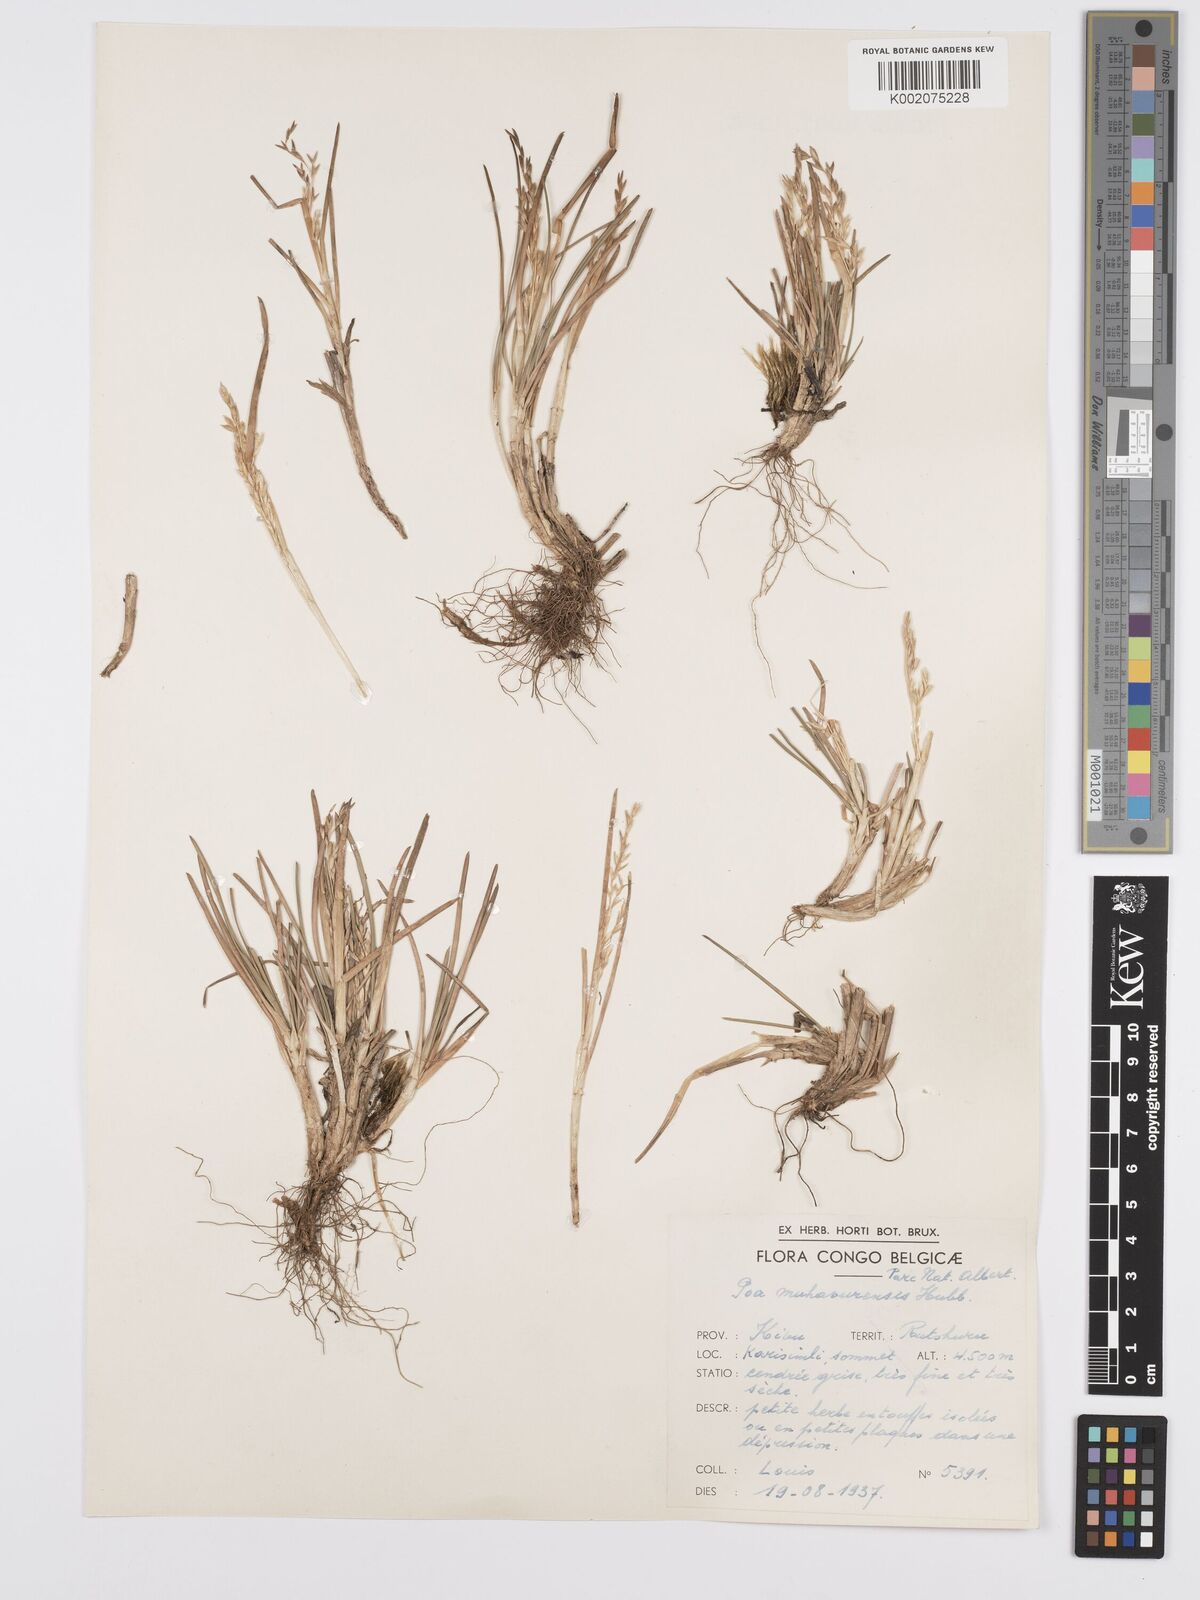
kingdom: Plantae
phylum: Tracheophyta
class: Liliopsida
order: Poales
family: Poaceae
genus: Poa
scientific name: Poa schimperiana
